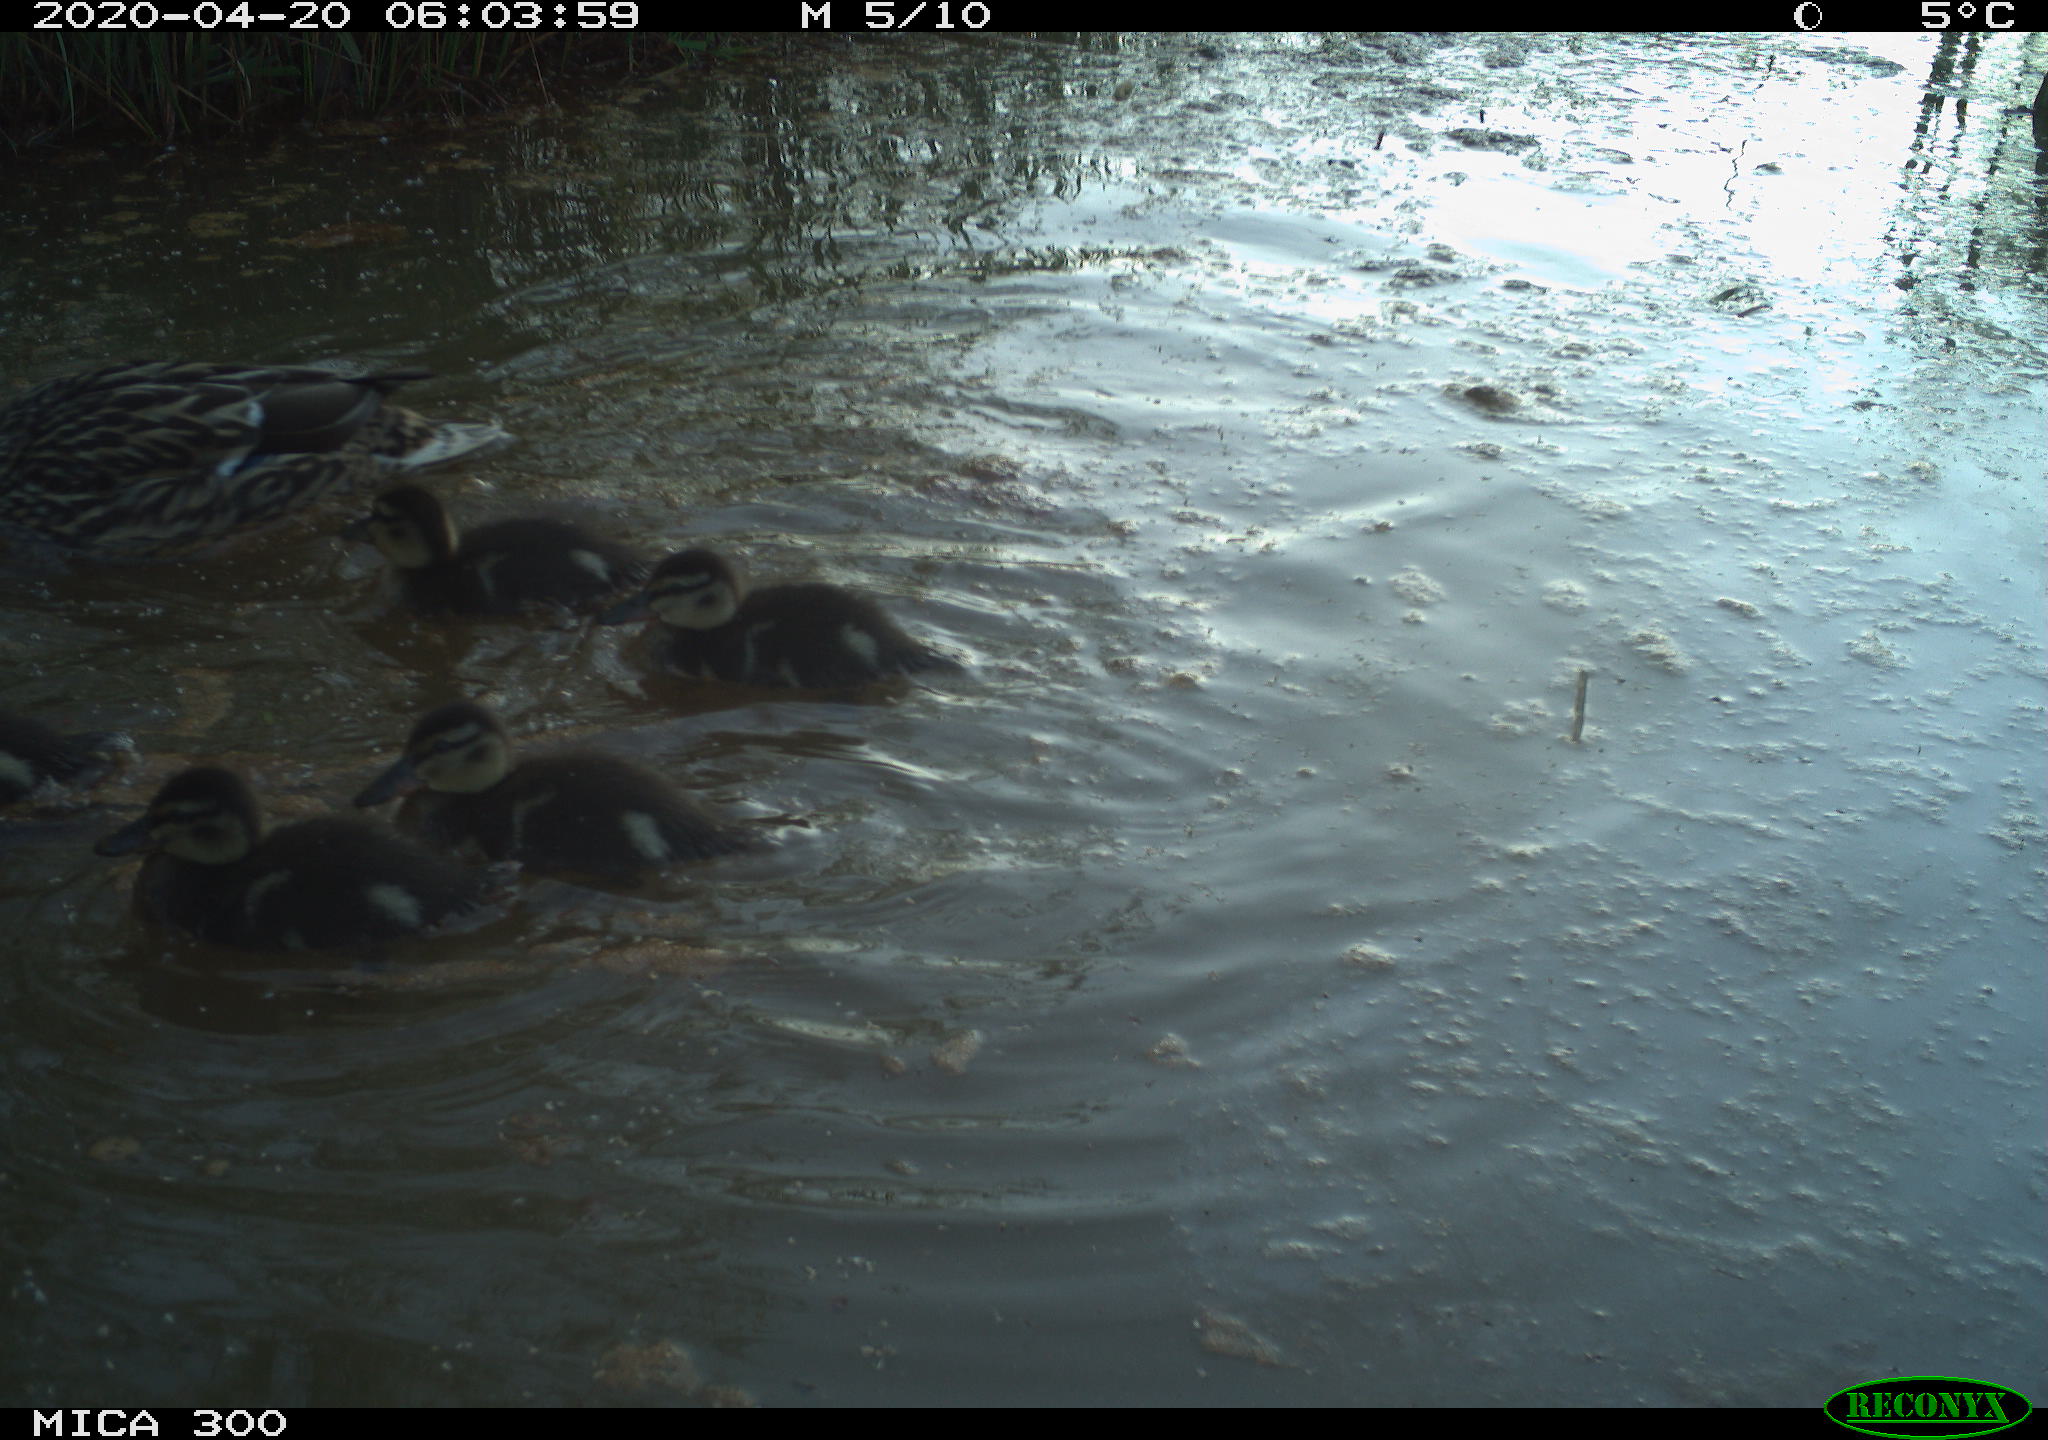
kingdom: Animalia
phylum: Chordata
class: Aves
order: Anseriformes
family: Anatidae
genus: Anas
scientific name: Anas platyrhynchos
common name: Mallard
